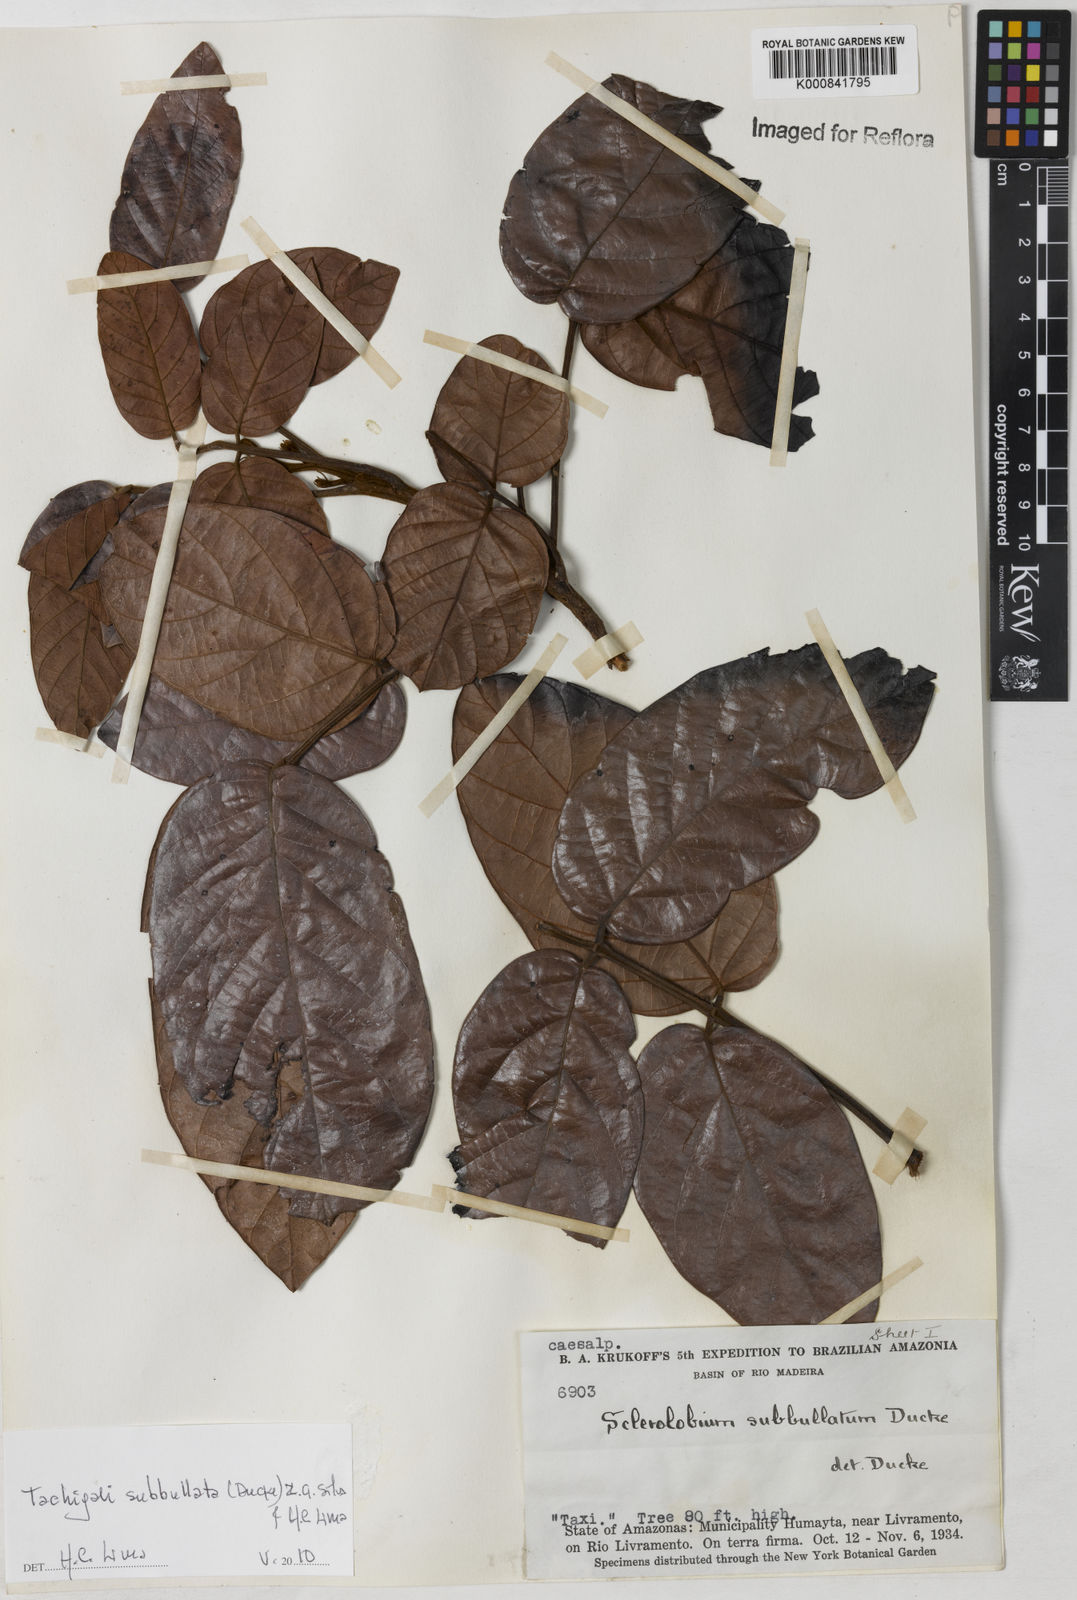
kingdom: Plantae
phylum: Tracheophyta
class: Magnoliopsida
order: Fabales
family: Fabaceae
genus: Tachigali
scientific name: Tachigali guianensis
